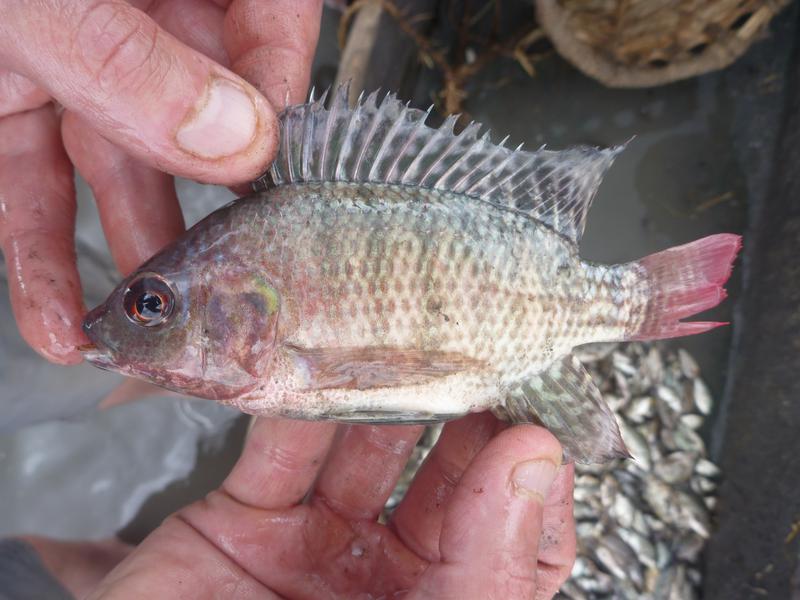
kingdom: Animalia
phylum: Chordata
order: Perciformes
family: Cichlidae
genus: Oreochromis
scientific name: Oreochromis niloticus
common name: Nile tilapia
